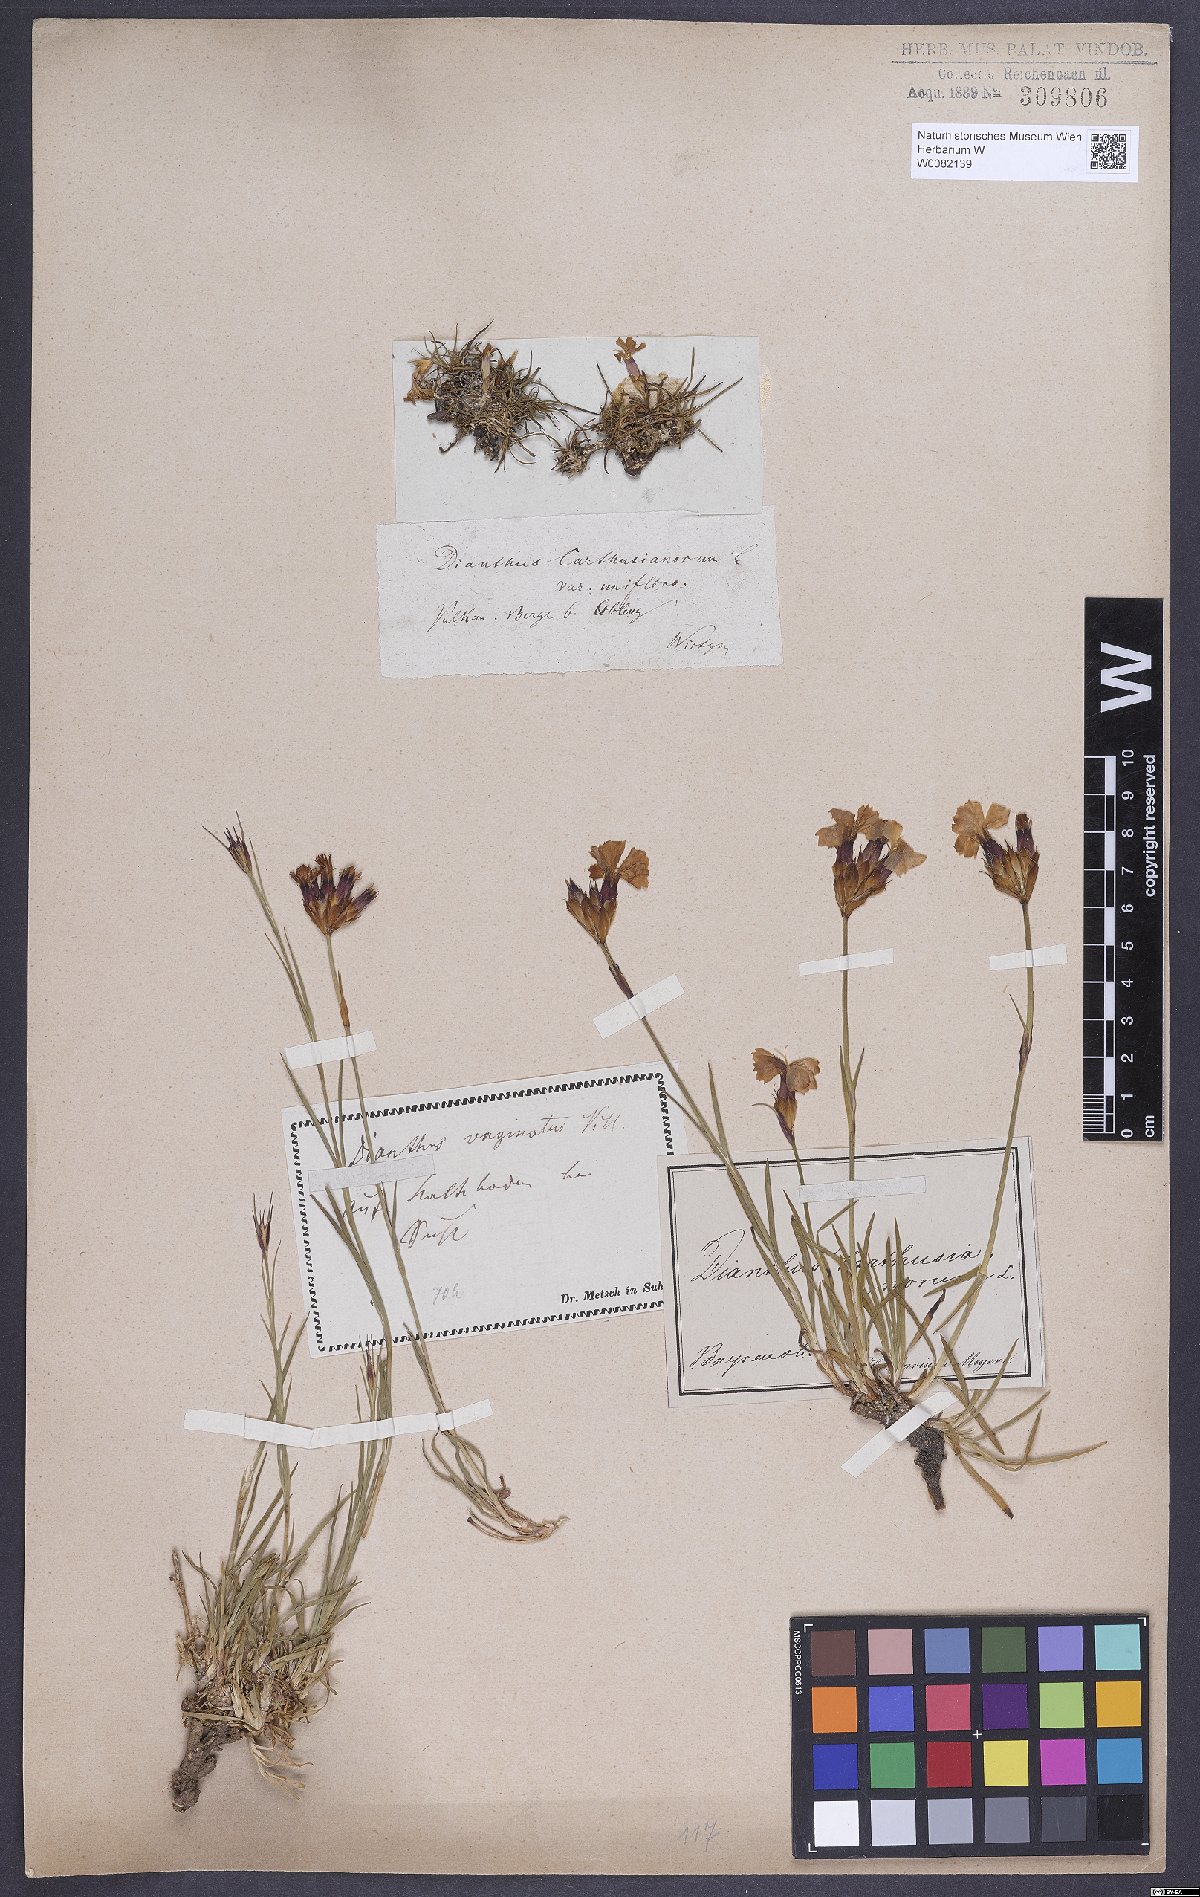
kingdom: Plantae
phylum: Tracheophyta
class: Magnoliopsida
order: Caryophyllales
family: Caryophyllaceae
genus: Dianthus
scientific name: Dianthus carthusianorum
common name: Carthusian pink
